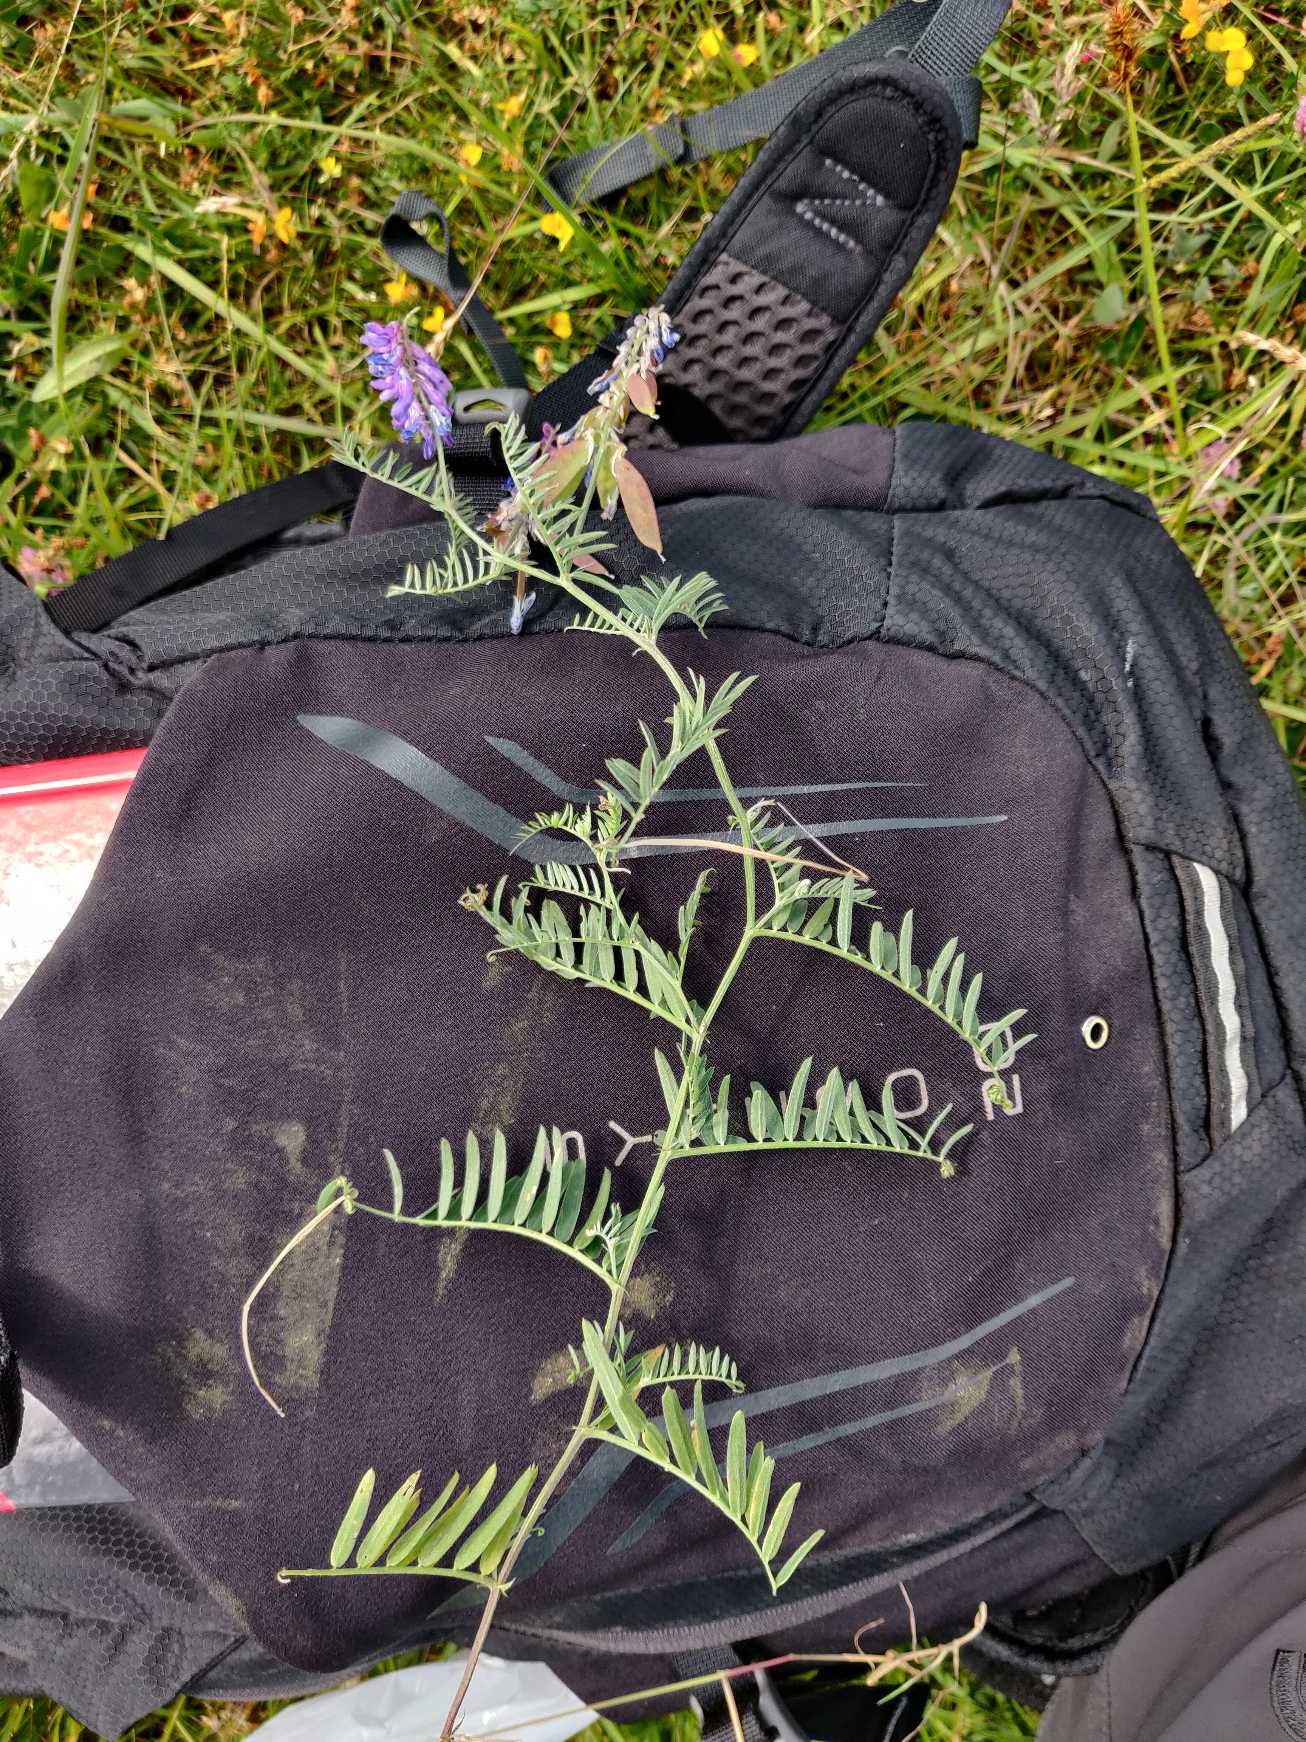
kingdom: Plantae
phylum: Tracheophyta
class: Magnoliopsida
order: Fabales
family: Fabaceae
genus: Vicia
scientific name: Vicia cracca
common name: Muse-vikke
